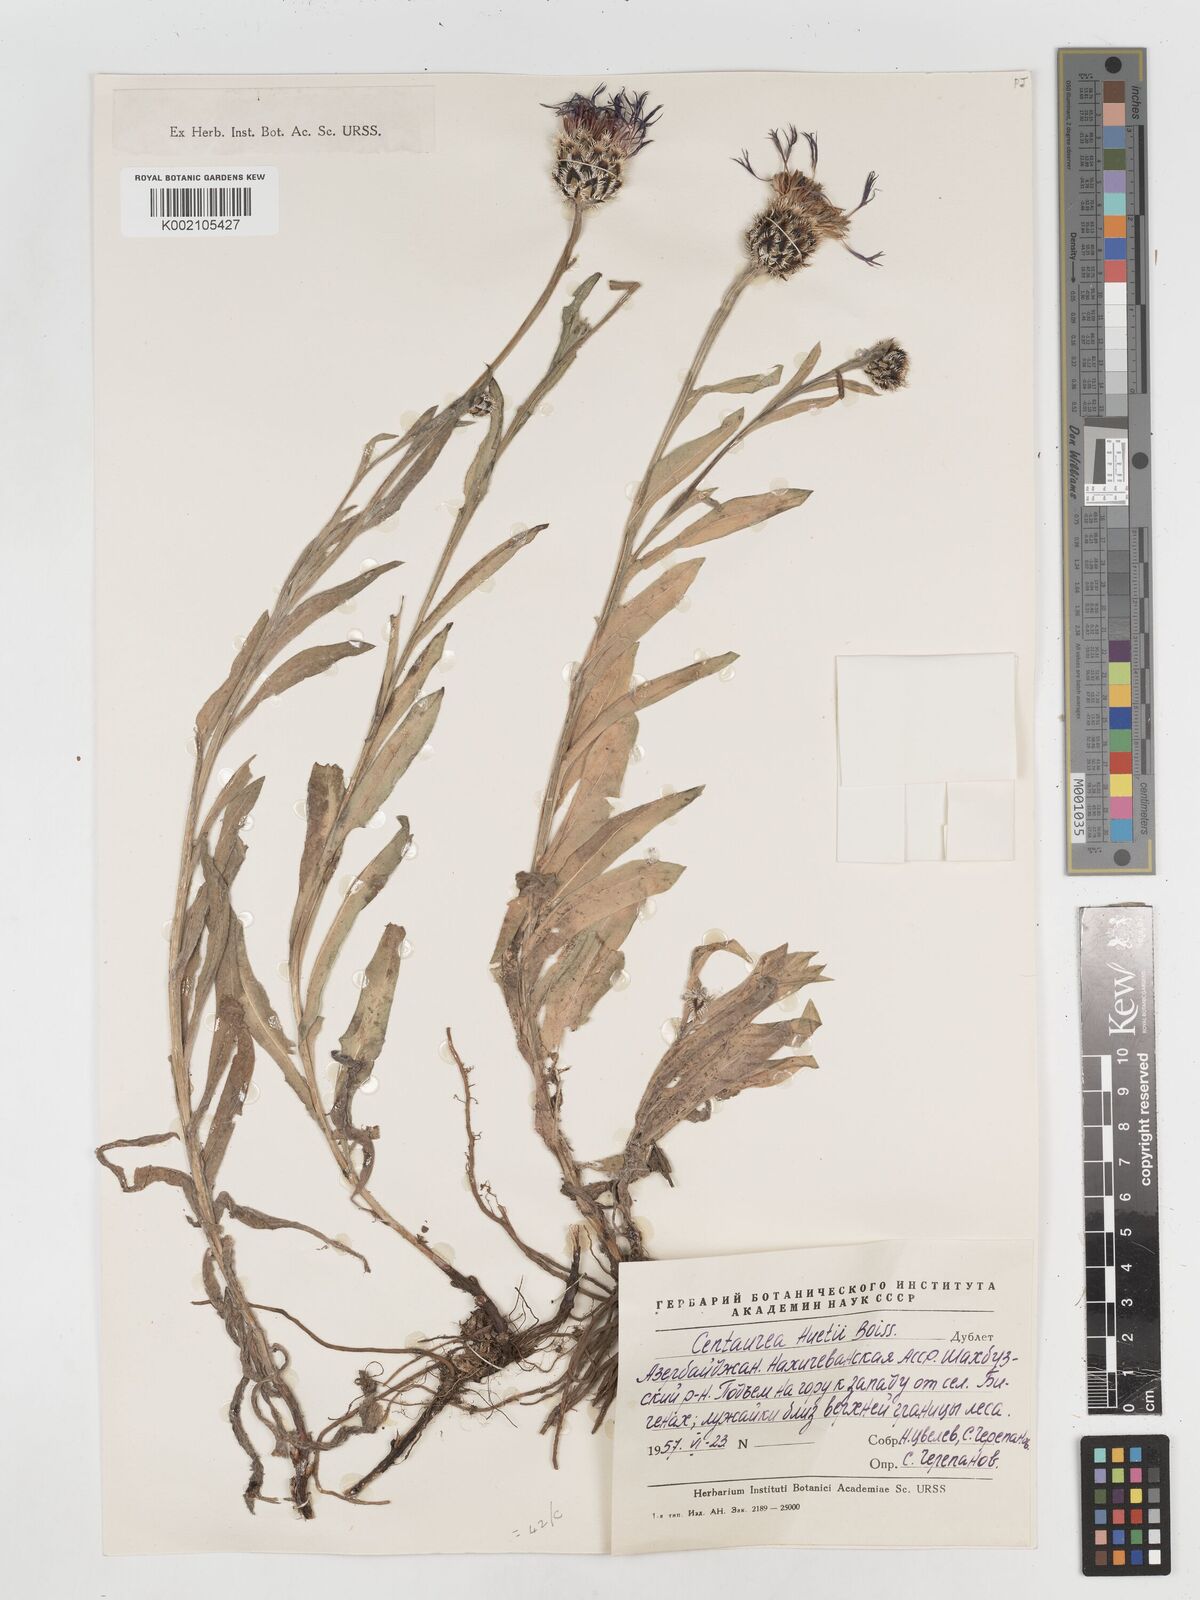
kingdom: Plantae
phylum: Tracheophyta
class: Magnoliopsida
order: Asterales
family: Asteraceae
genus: Centaurea
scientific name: Centaurea triumfettii
